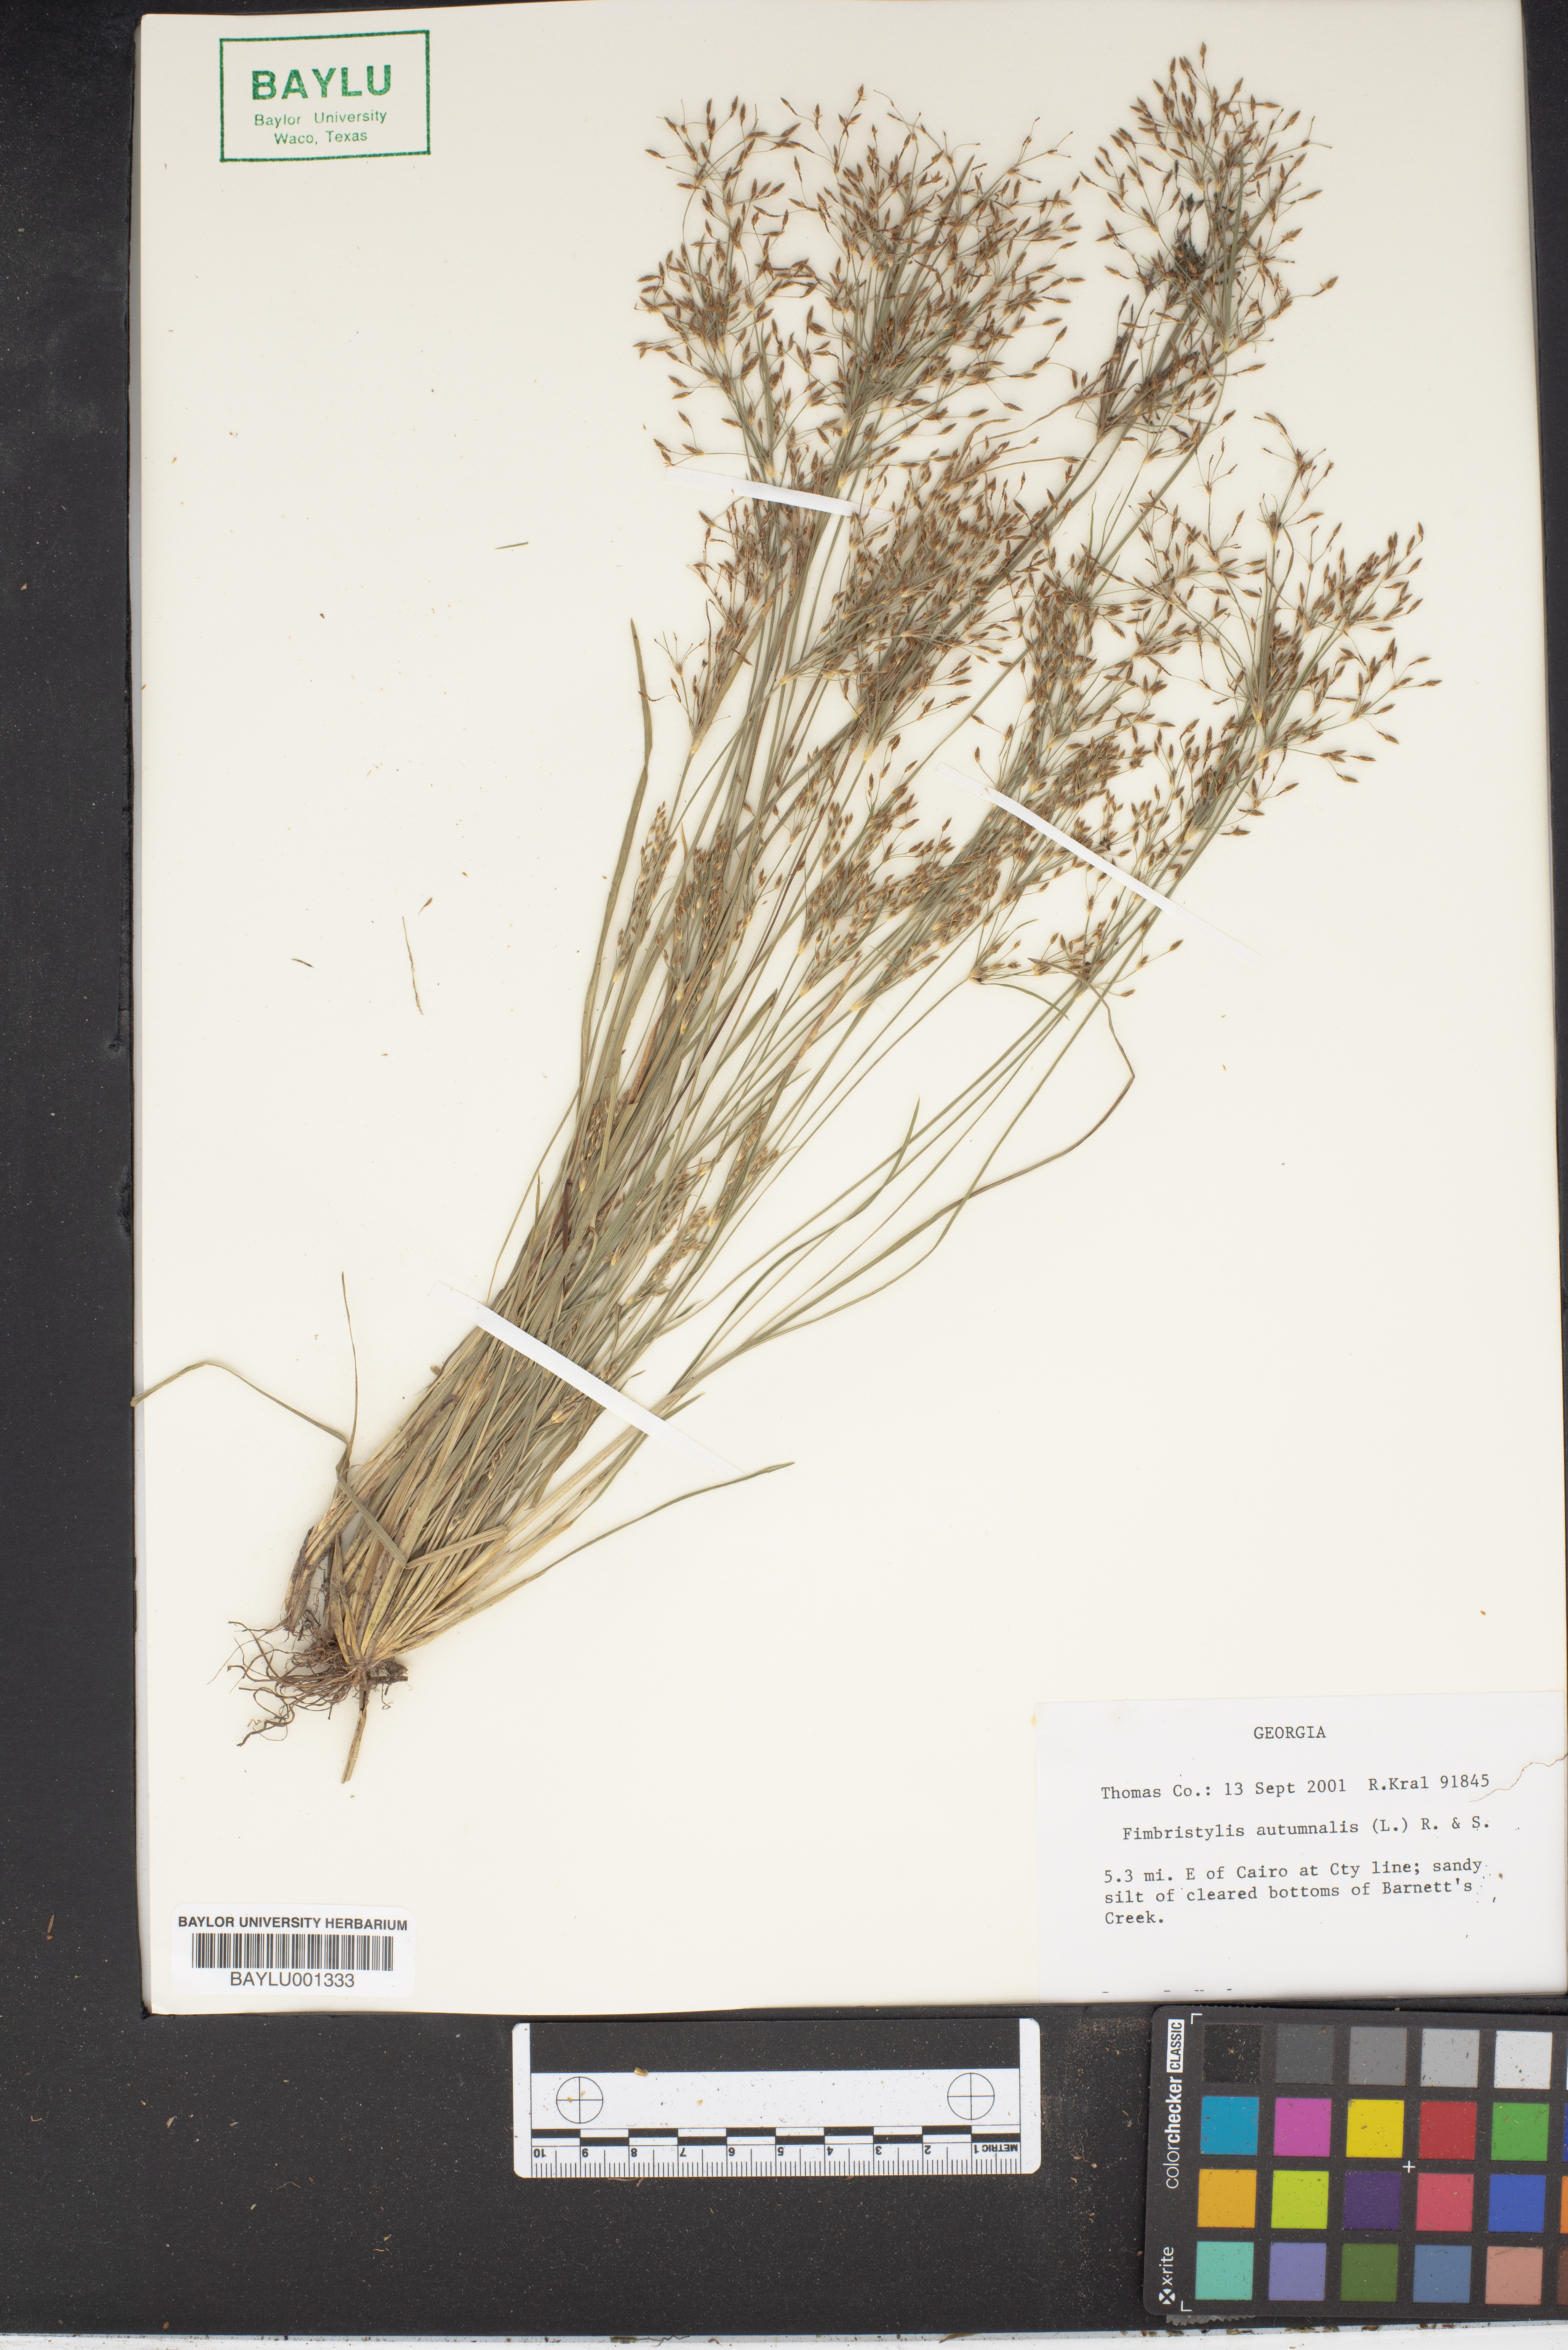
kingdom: Plantae
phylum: Tracheophyta
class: Liliopsida
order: Poales
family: Cyperaceae
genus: Fimbristylis
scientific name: Fimbristylis autumnalis
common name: Slender fimbristylis
